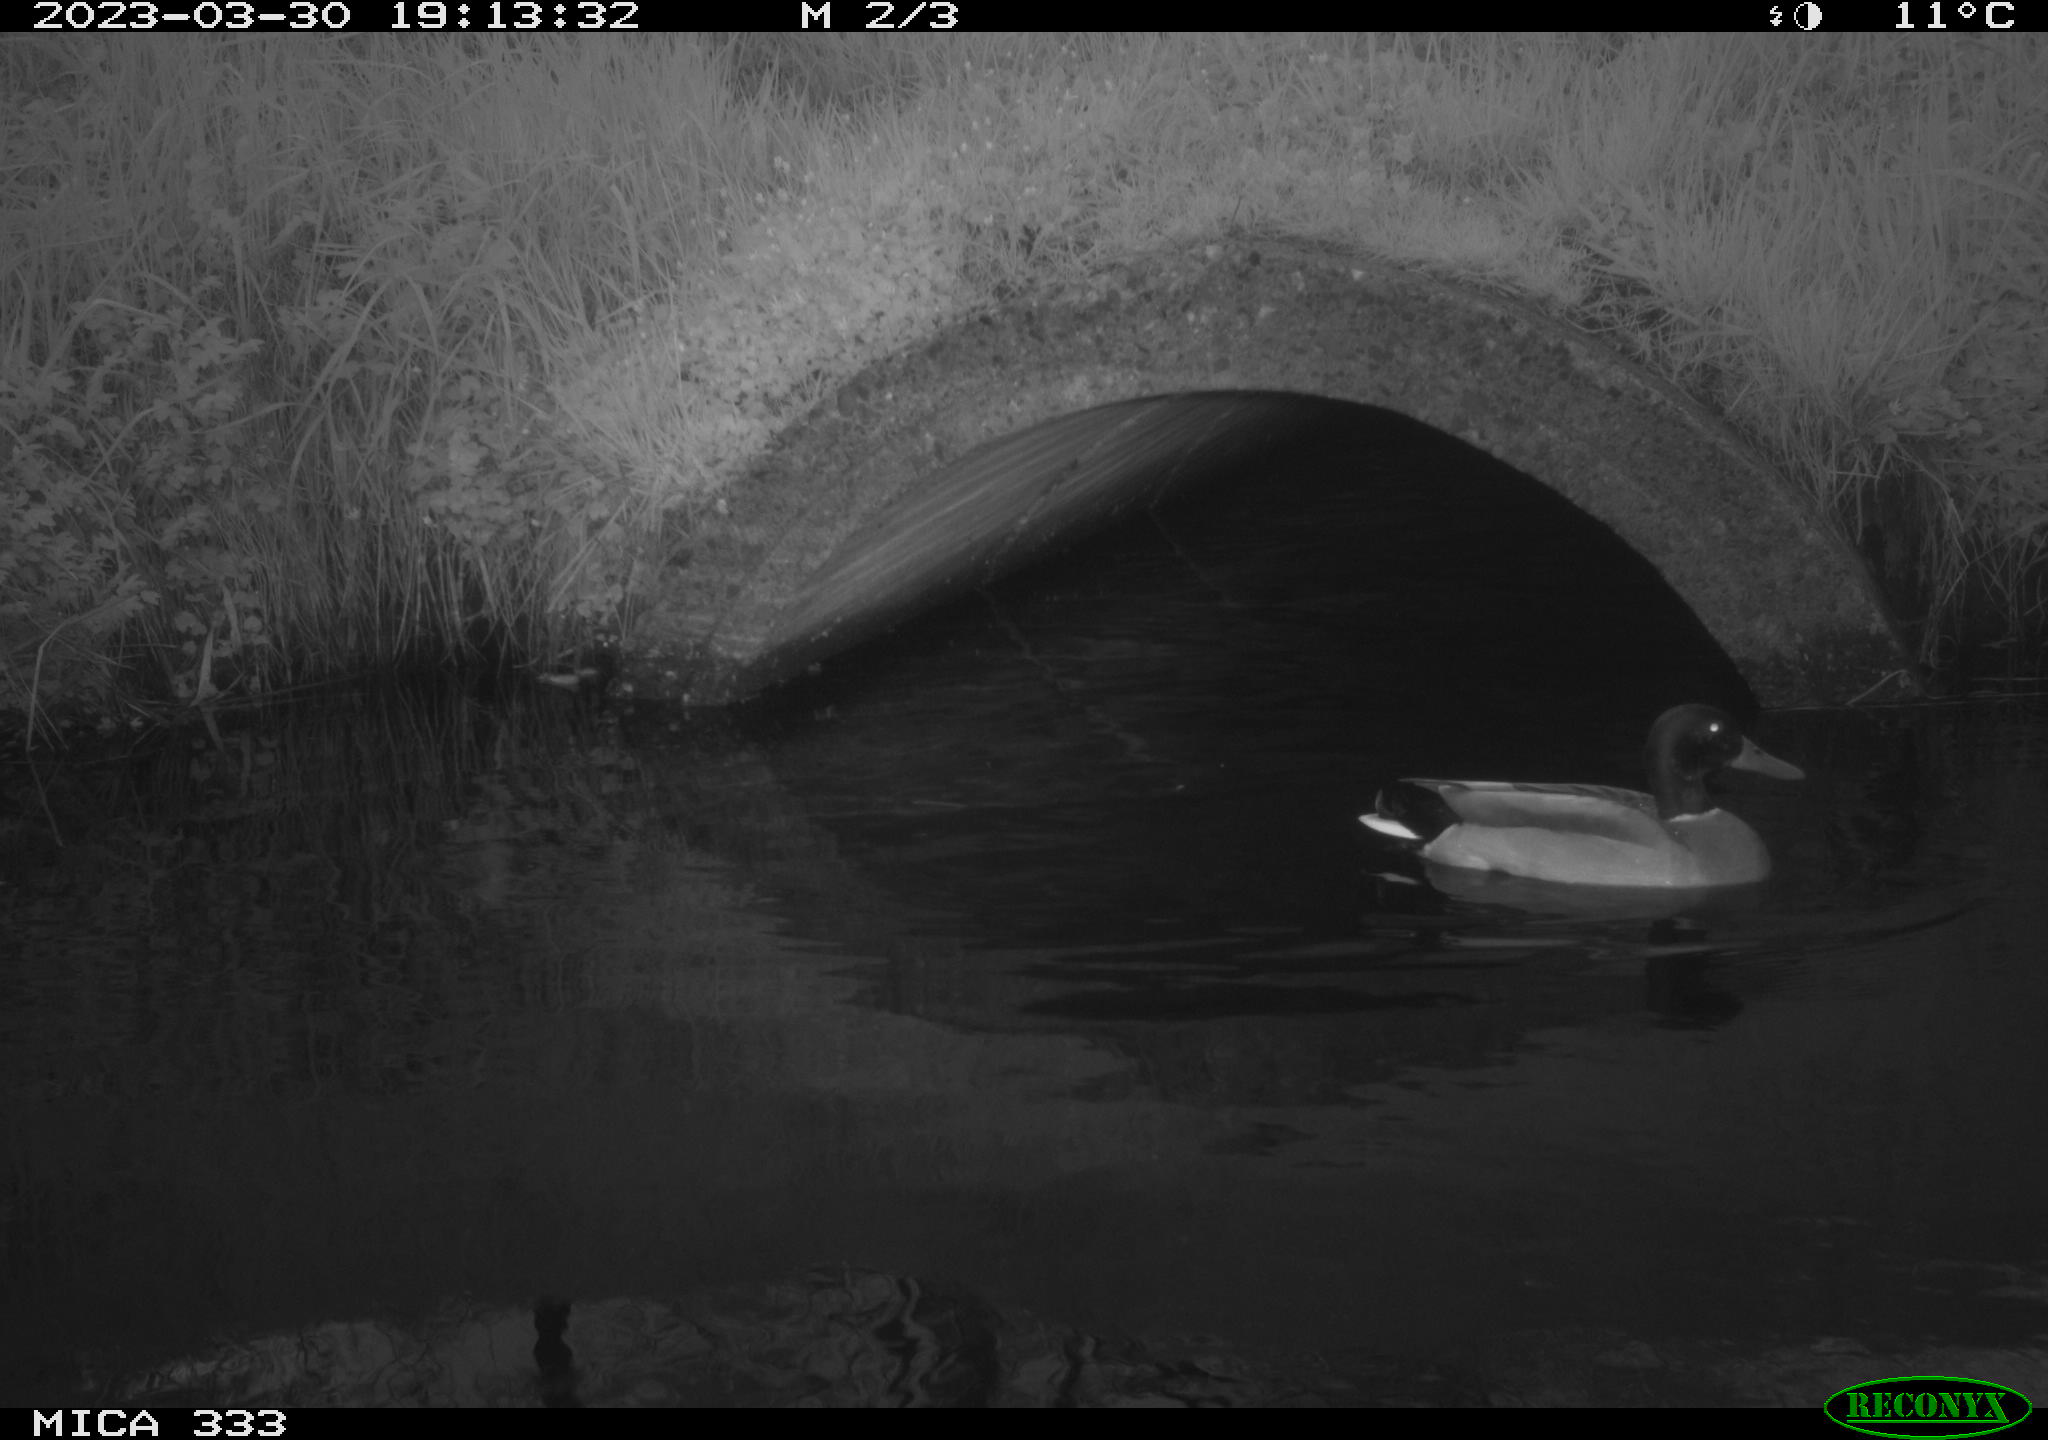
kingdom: Animalia
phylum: Chordata
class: Aves
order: Anseriformes
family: Anatidae
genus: Anas
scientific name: Anas
